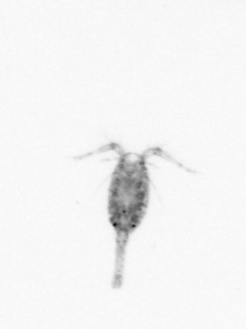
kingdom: Animalia
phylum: Arthropoda
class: Copepoda
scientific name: Copepoda
